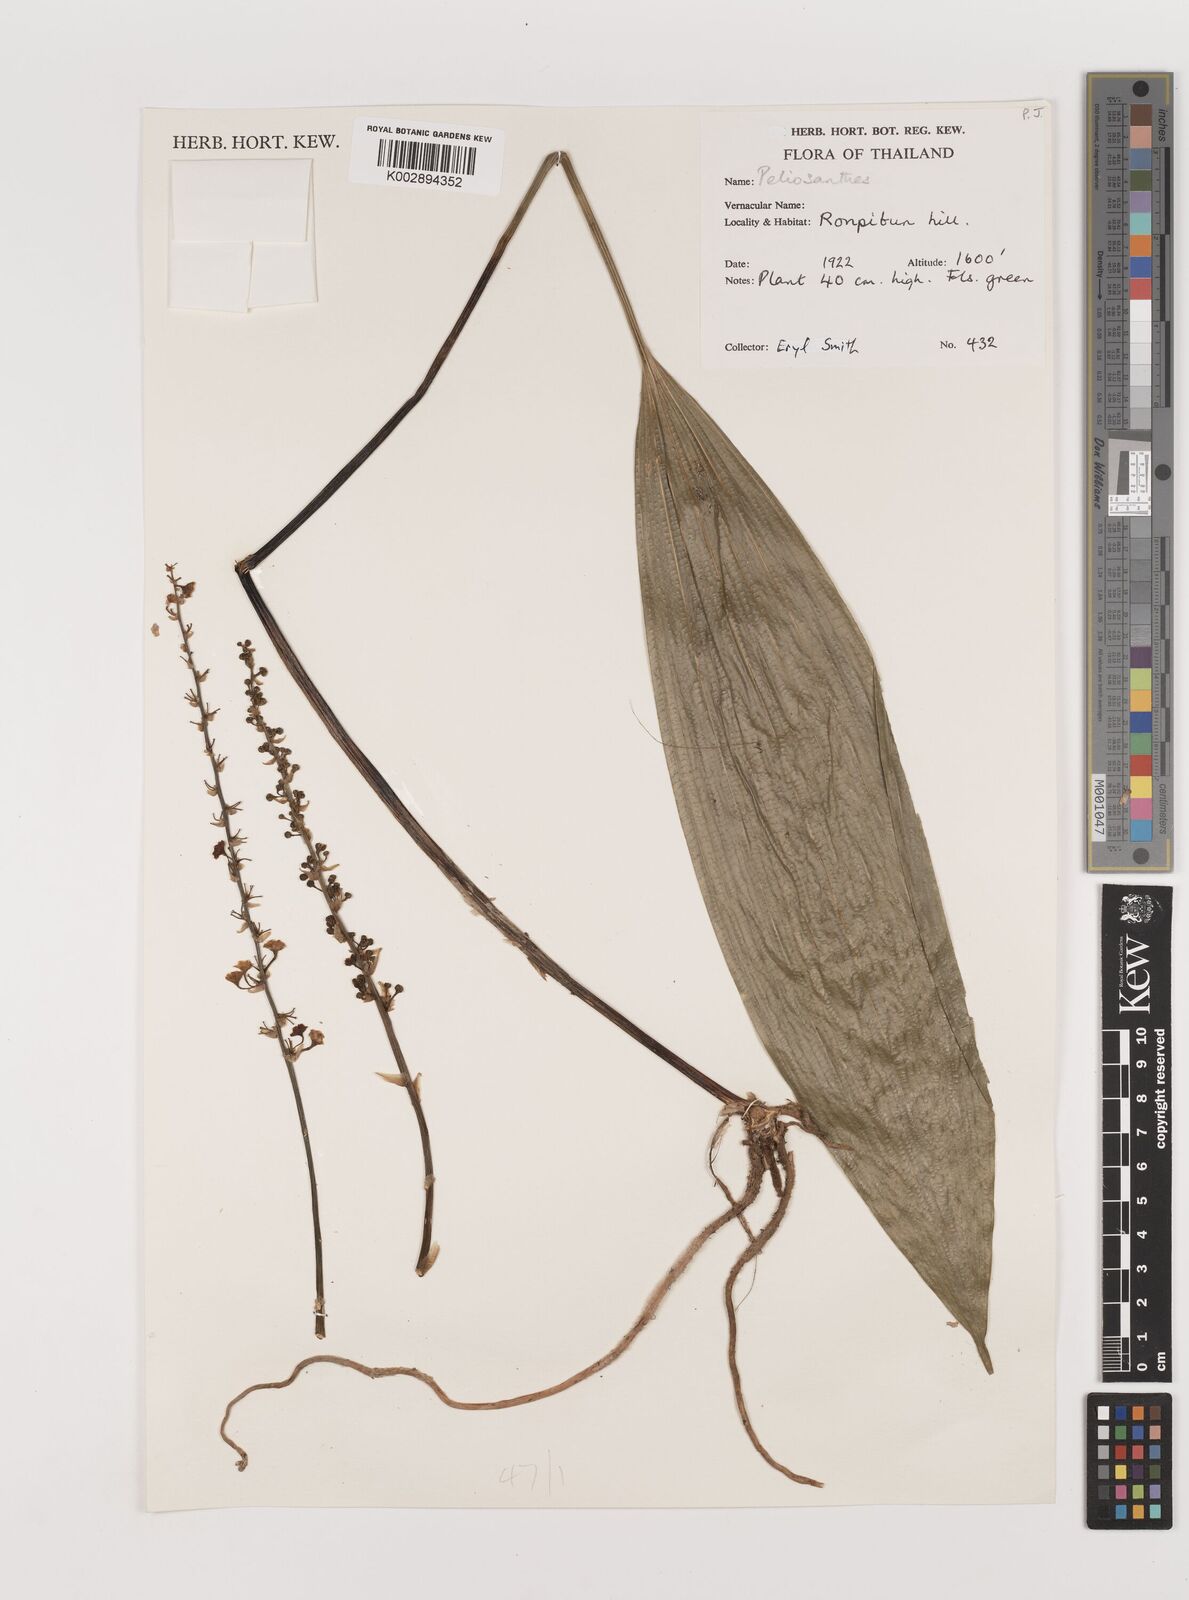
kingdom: Plantae
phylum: Tracheophyta
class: Liliopsida
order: Asparagales
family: Asparagaceae
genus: Peliosanthes
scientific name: Peliosanthes teta
